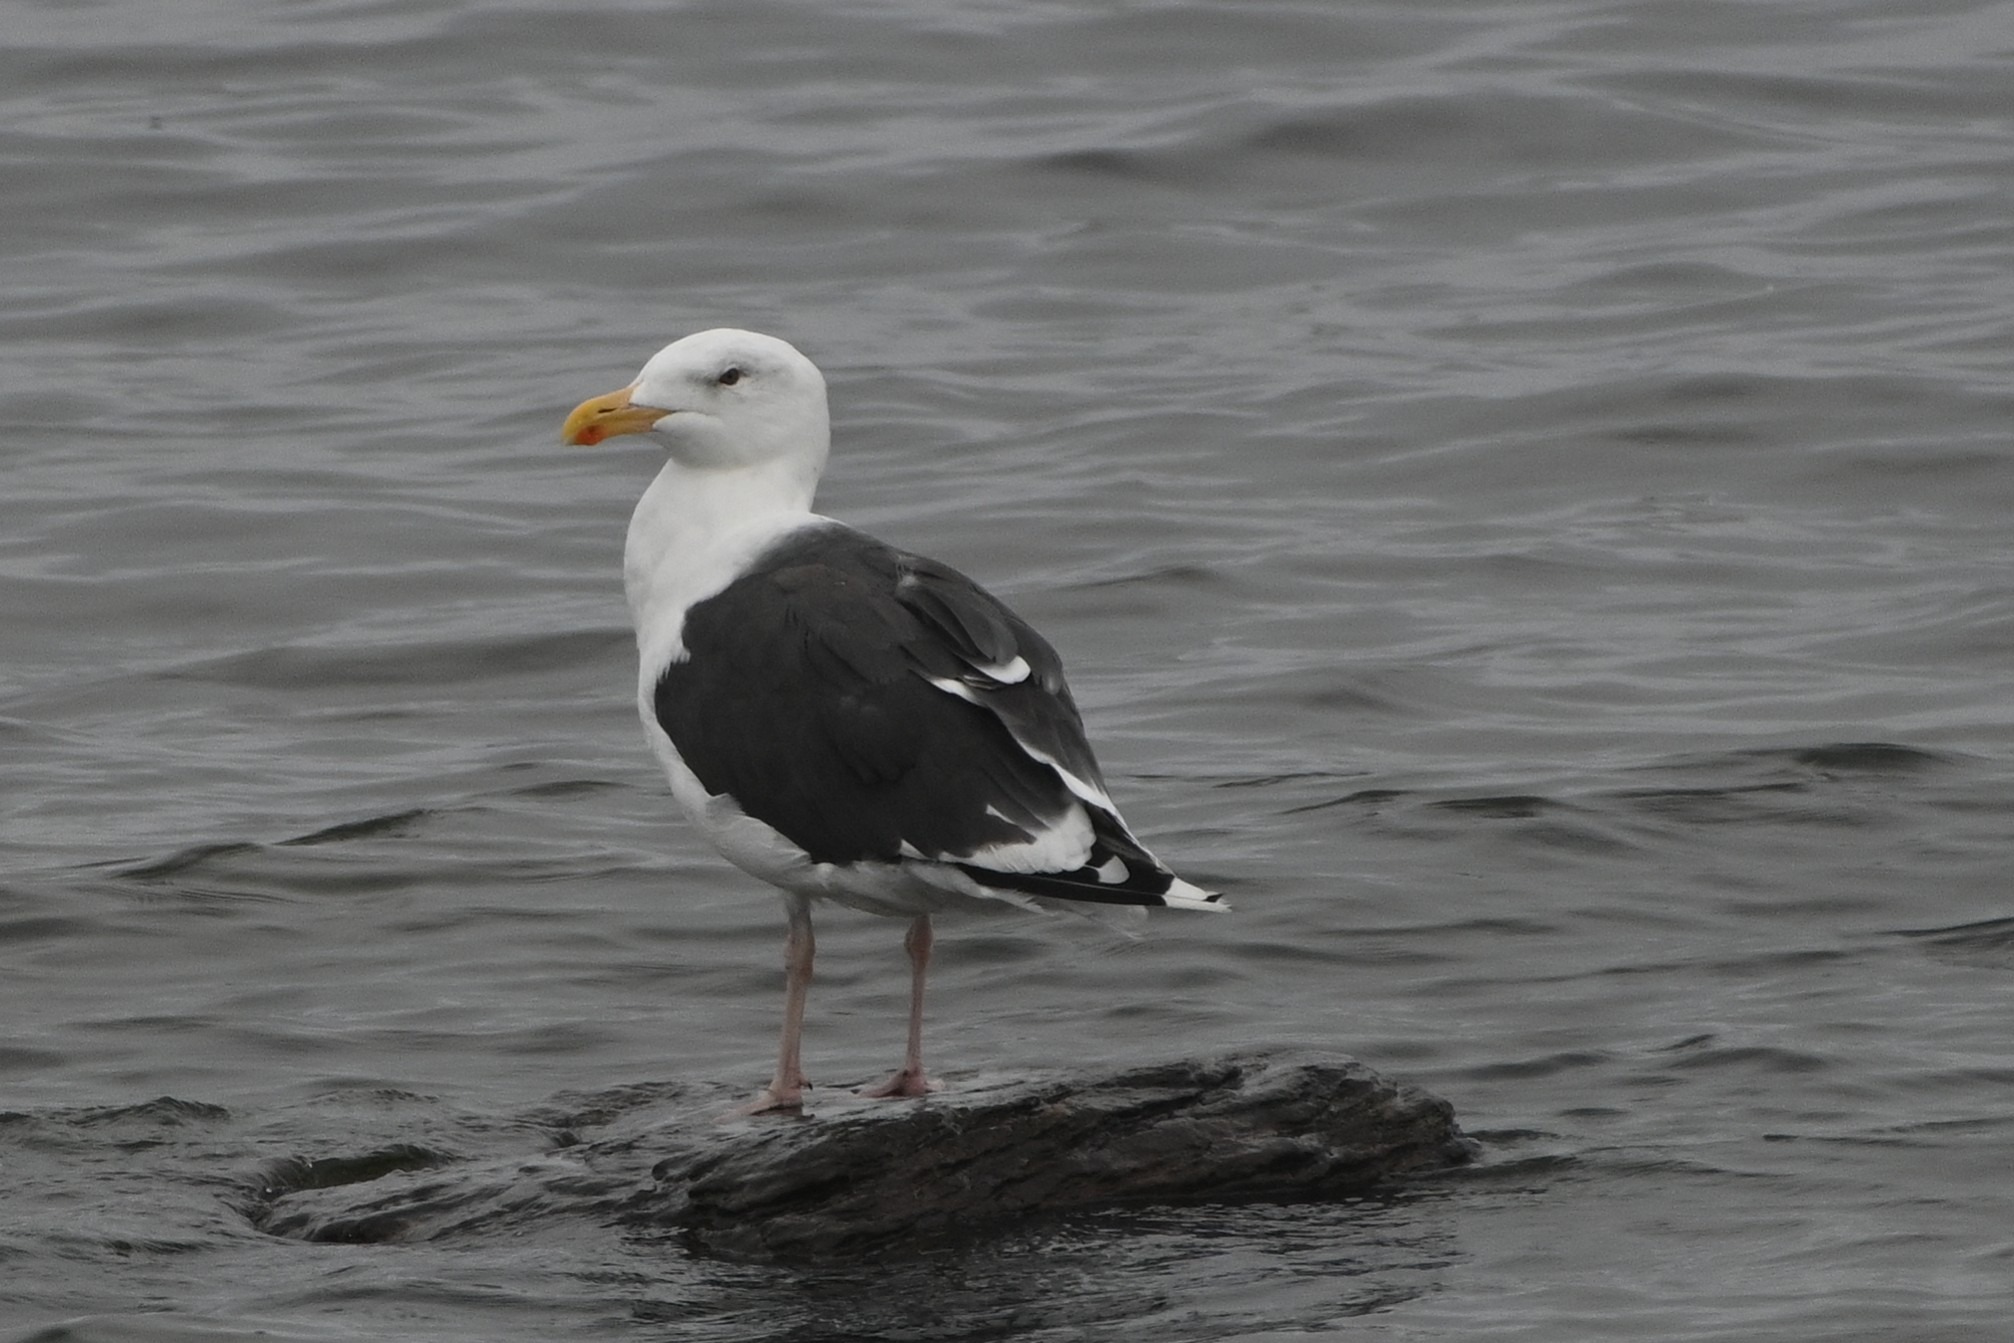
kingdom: Animalia
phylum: Chordata
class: Aves
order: Charadriiformes
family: Laridae
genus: Larus
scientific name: Larus marinus
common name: Svartbag
